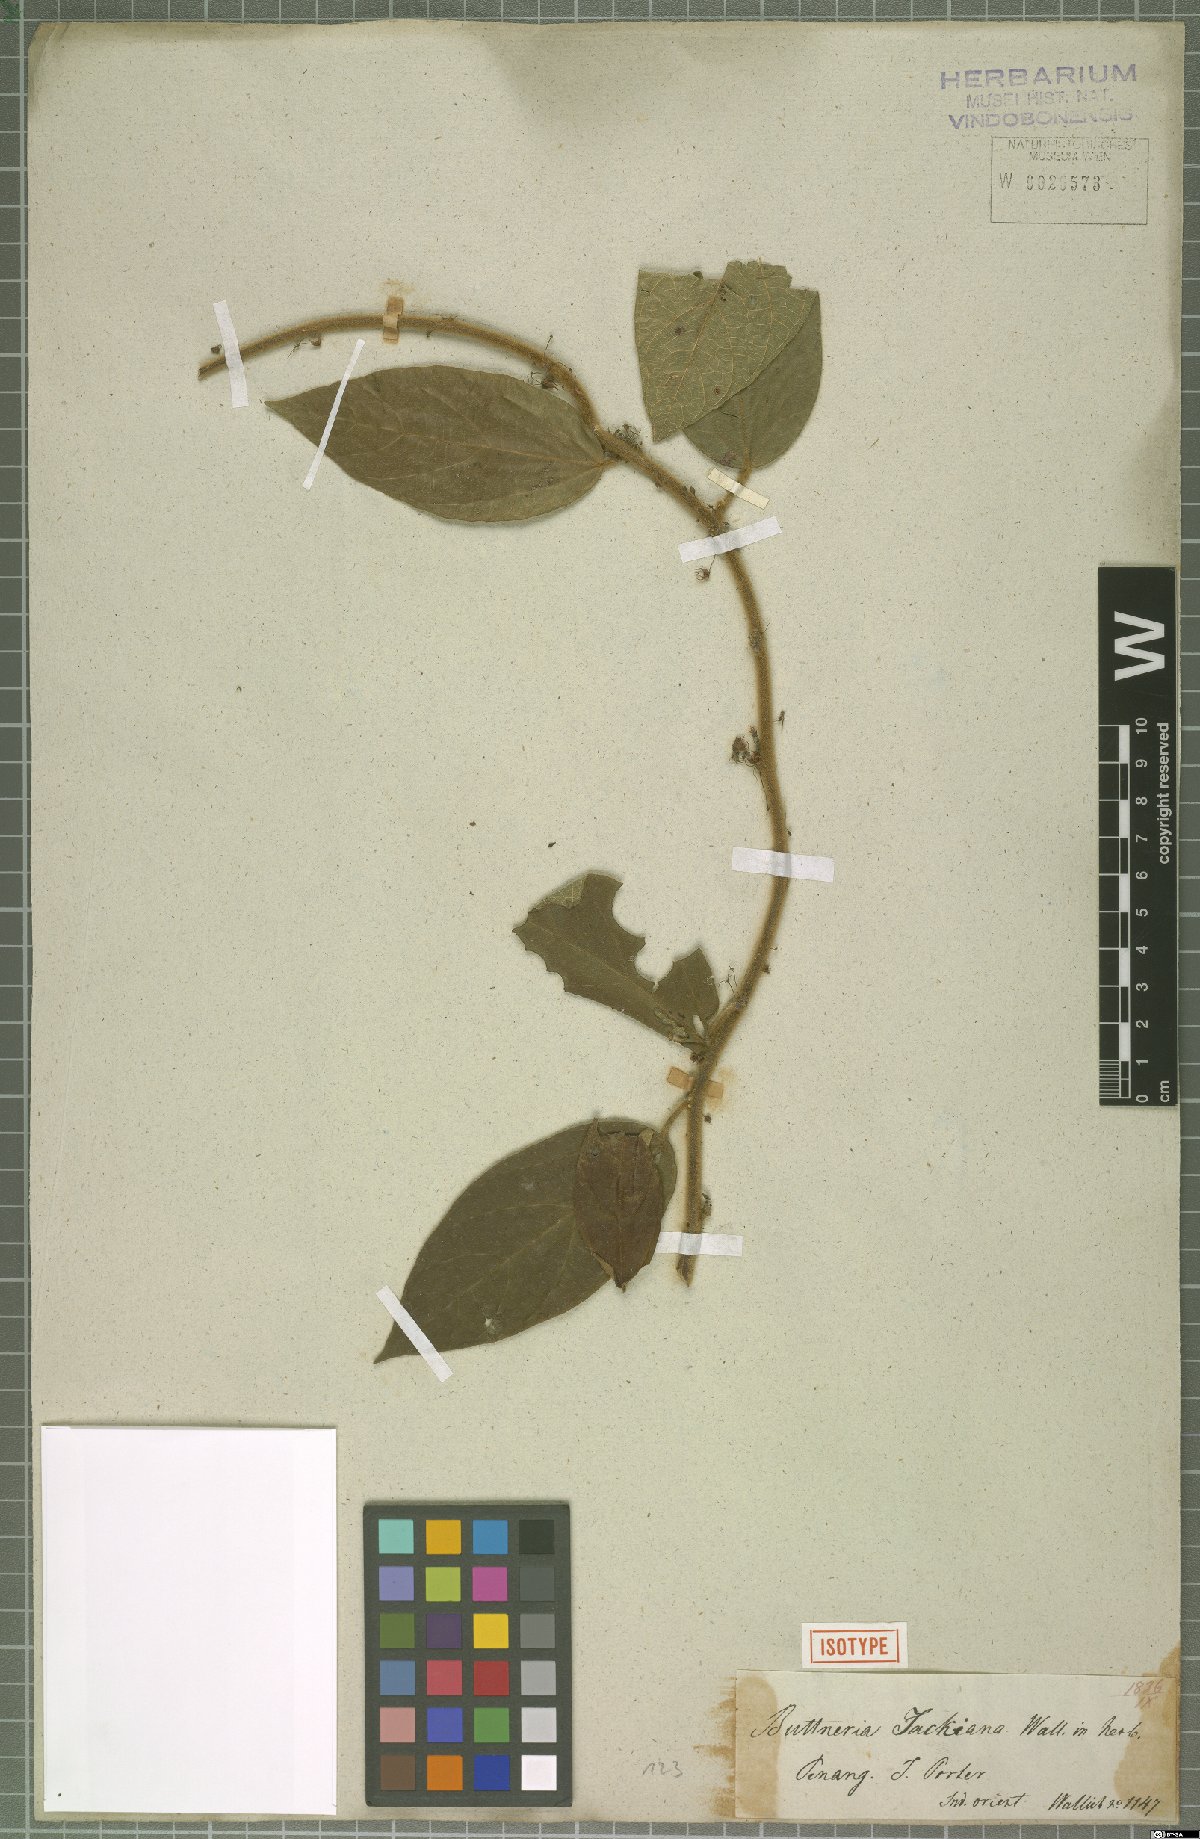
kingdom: Plantae
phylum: Tracheophyta
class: Magnoliopsida
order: Malvales
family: Malvaceae
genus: Byttneria
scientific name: Byttneria jackiana
